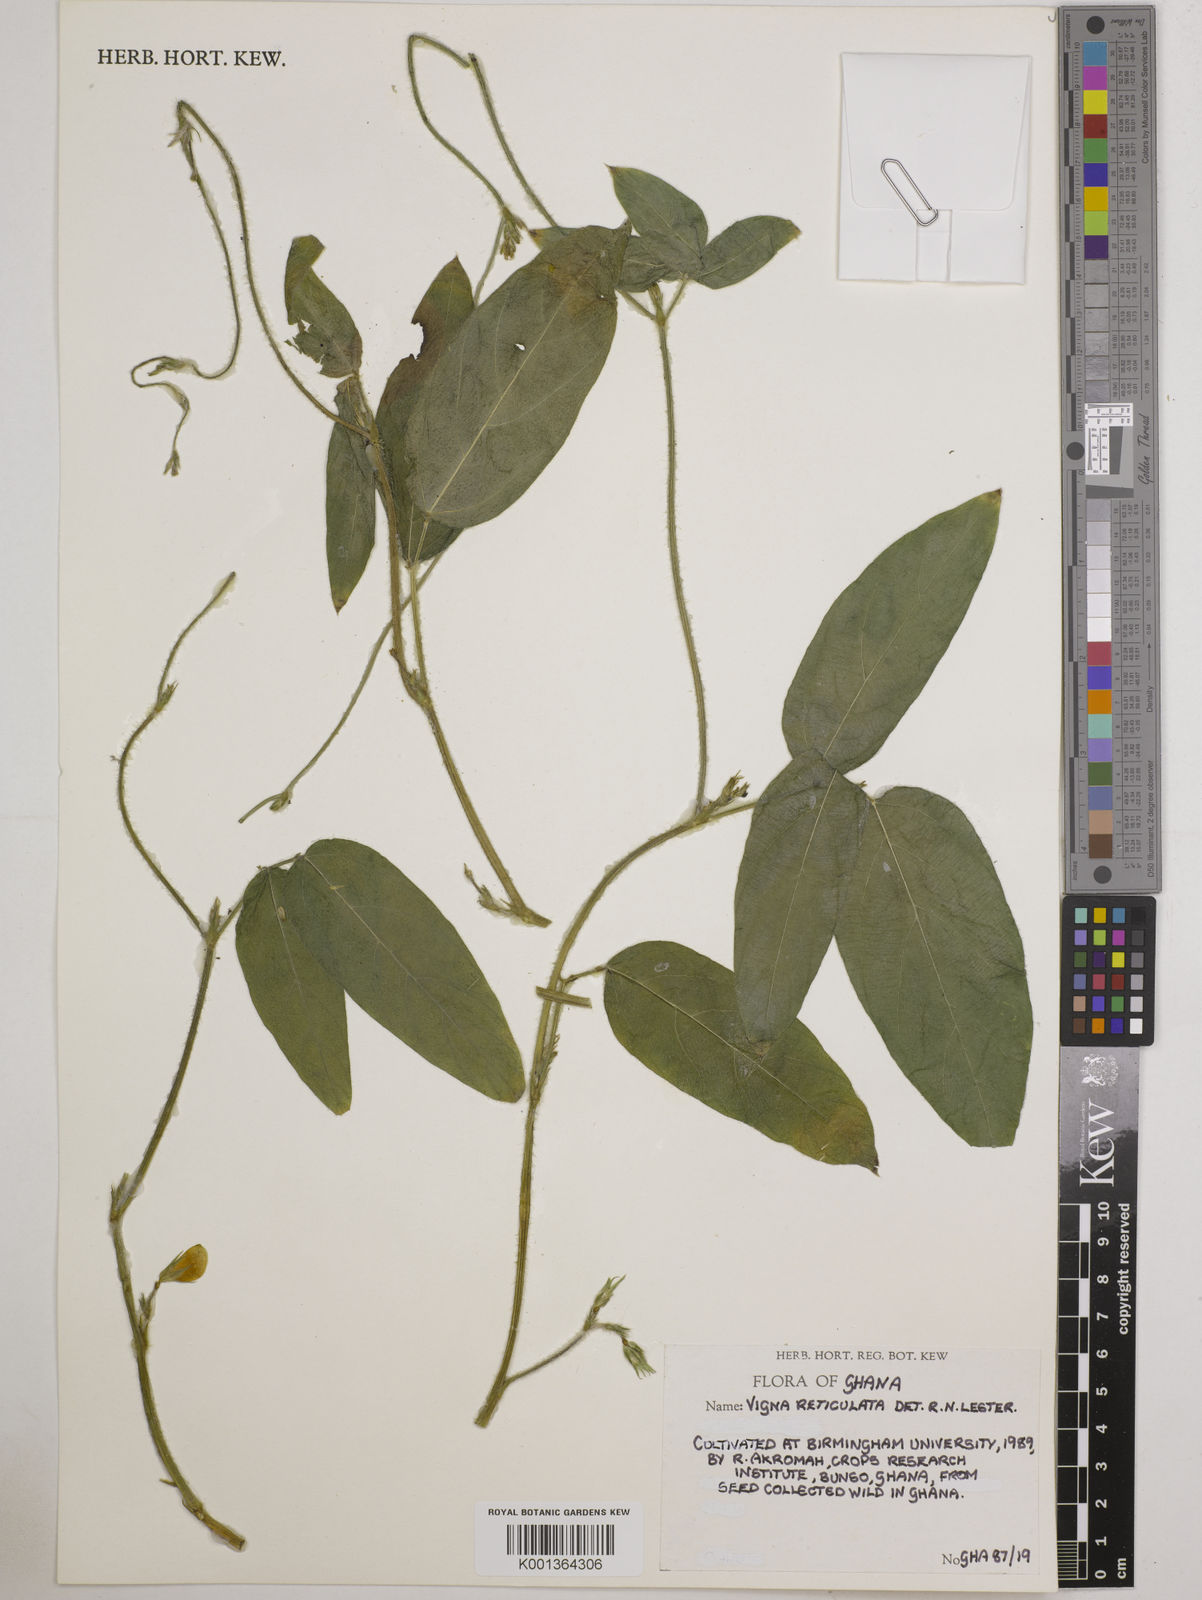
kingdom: Plantae
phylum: Tracheophyta
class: Magnoliopsida
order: Fabales
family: Fabaceae
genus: Vigna
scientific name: Vigna
